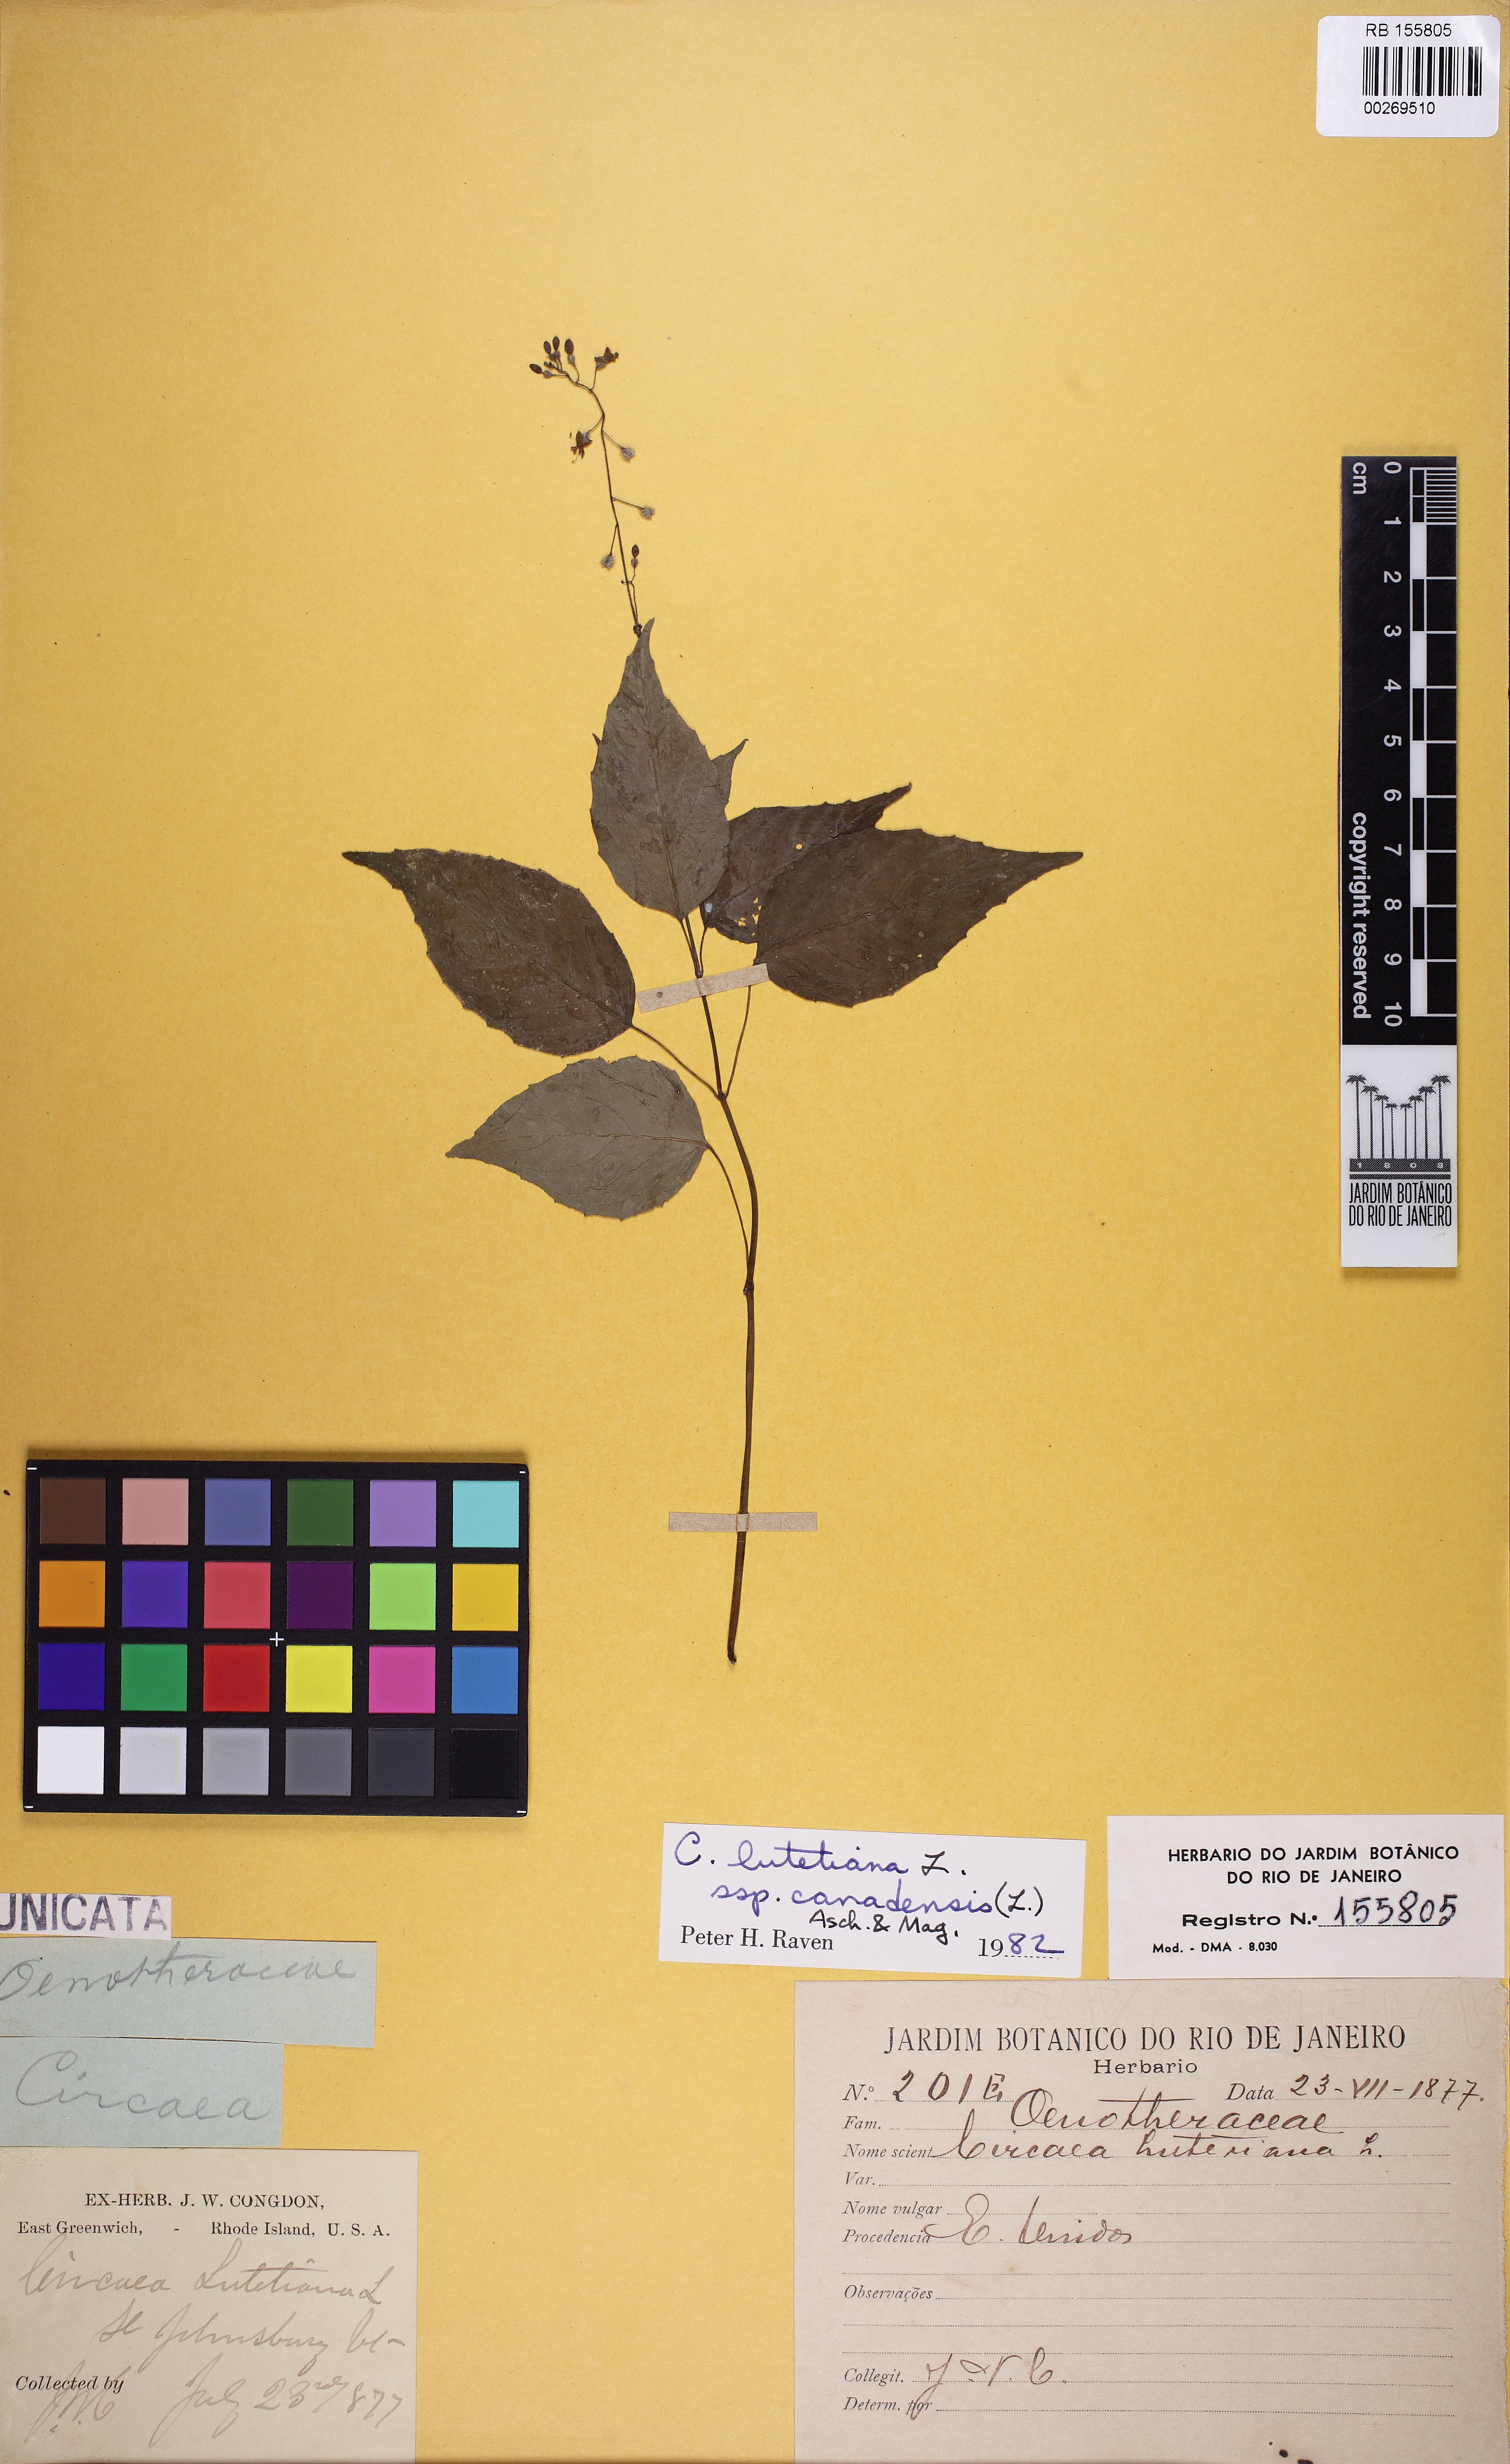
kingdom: Plantae
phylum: Tracheophyta
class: Magnoliopsida
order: Myrtales
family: Onagraceae
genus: Circaea
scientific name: Circaea lutetiana
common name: Enchanter's-nightshade
